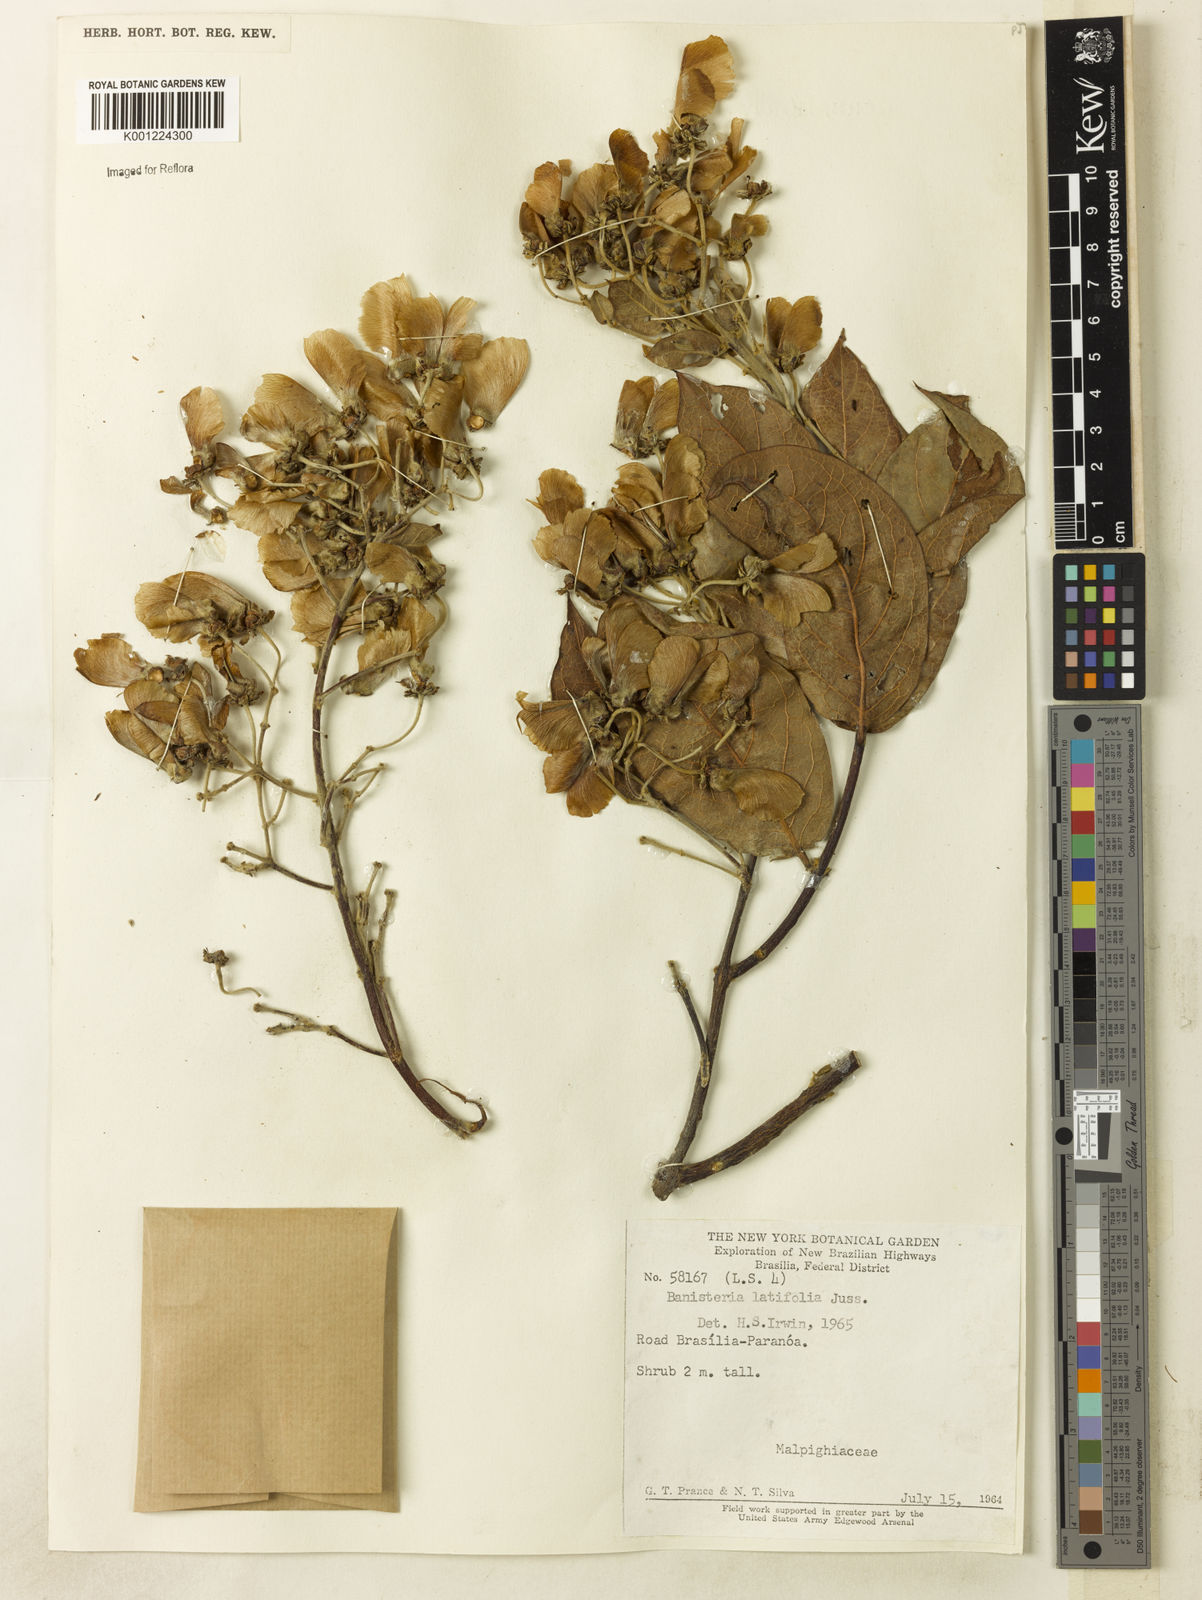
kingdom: Plantae
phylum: Tracheophyta
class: Magnoliopsida
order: Malpighiales
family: Malpighiaceae
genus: Banisteriopsis
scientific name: Banisteriopsis latifolia
